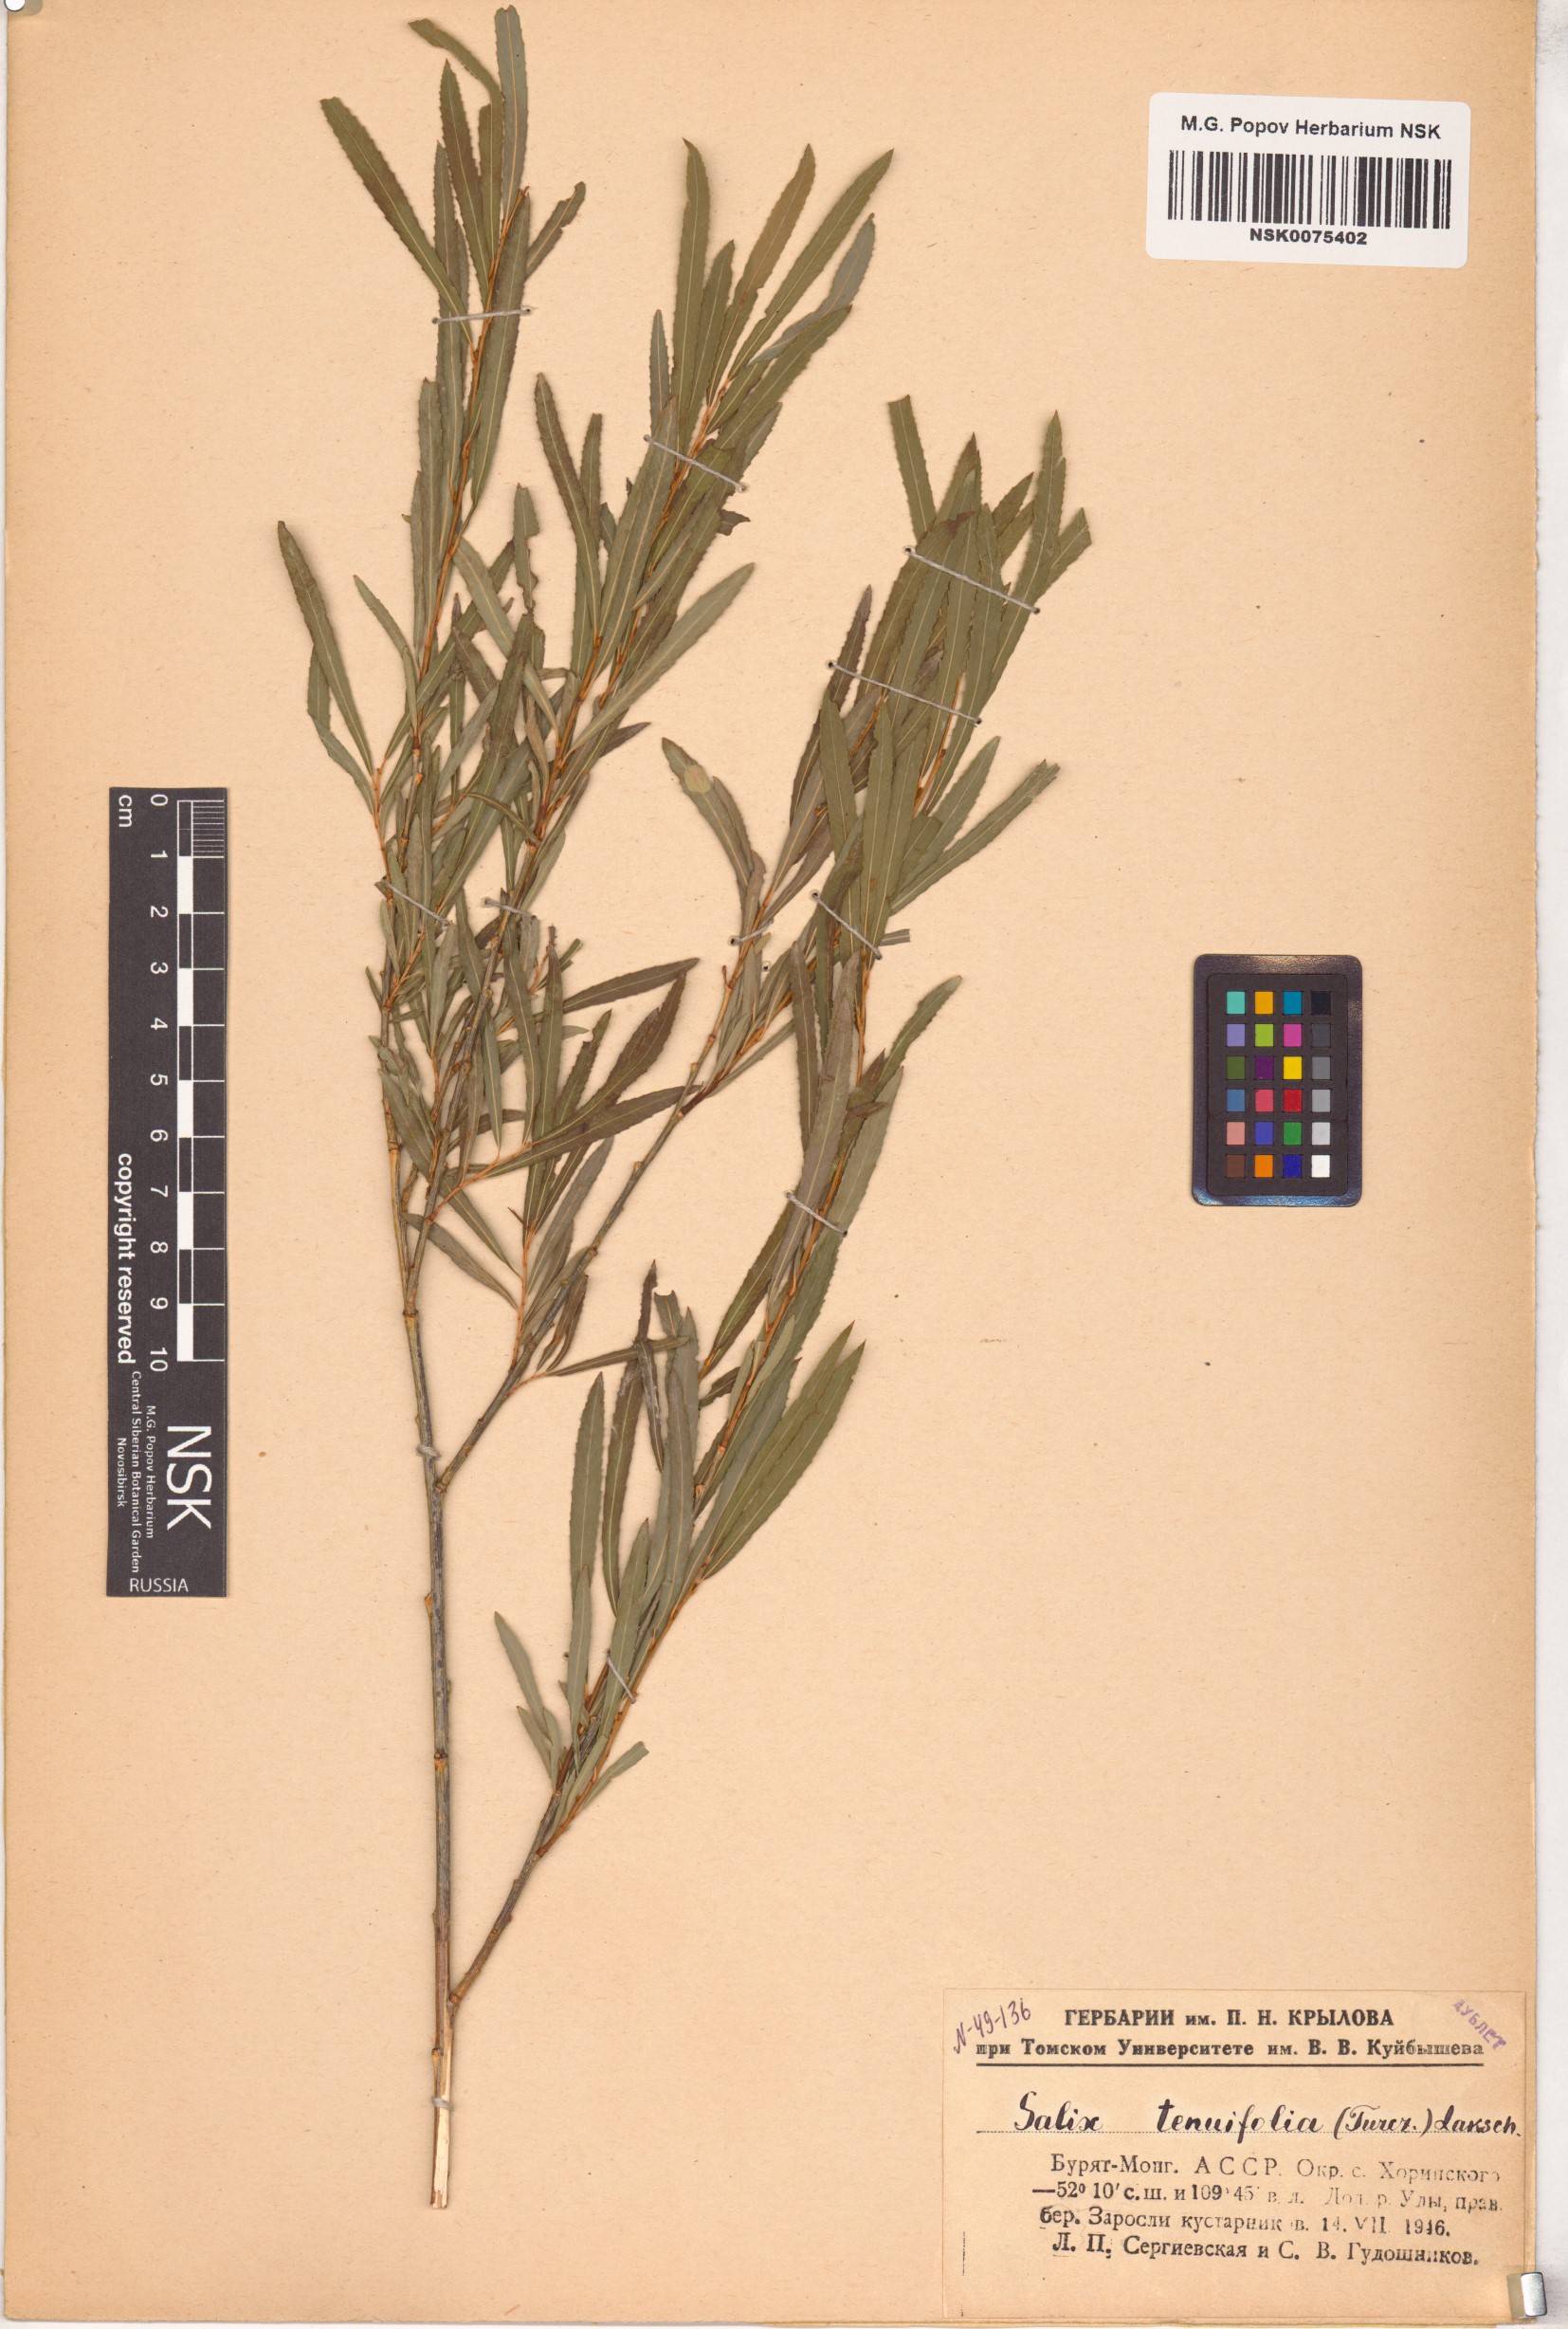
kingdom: Plantae
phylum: Tracheophyta
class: Magnoliopsida
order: Malpighiales
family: Salicaceae
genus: Salix
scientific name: Salix
